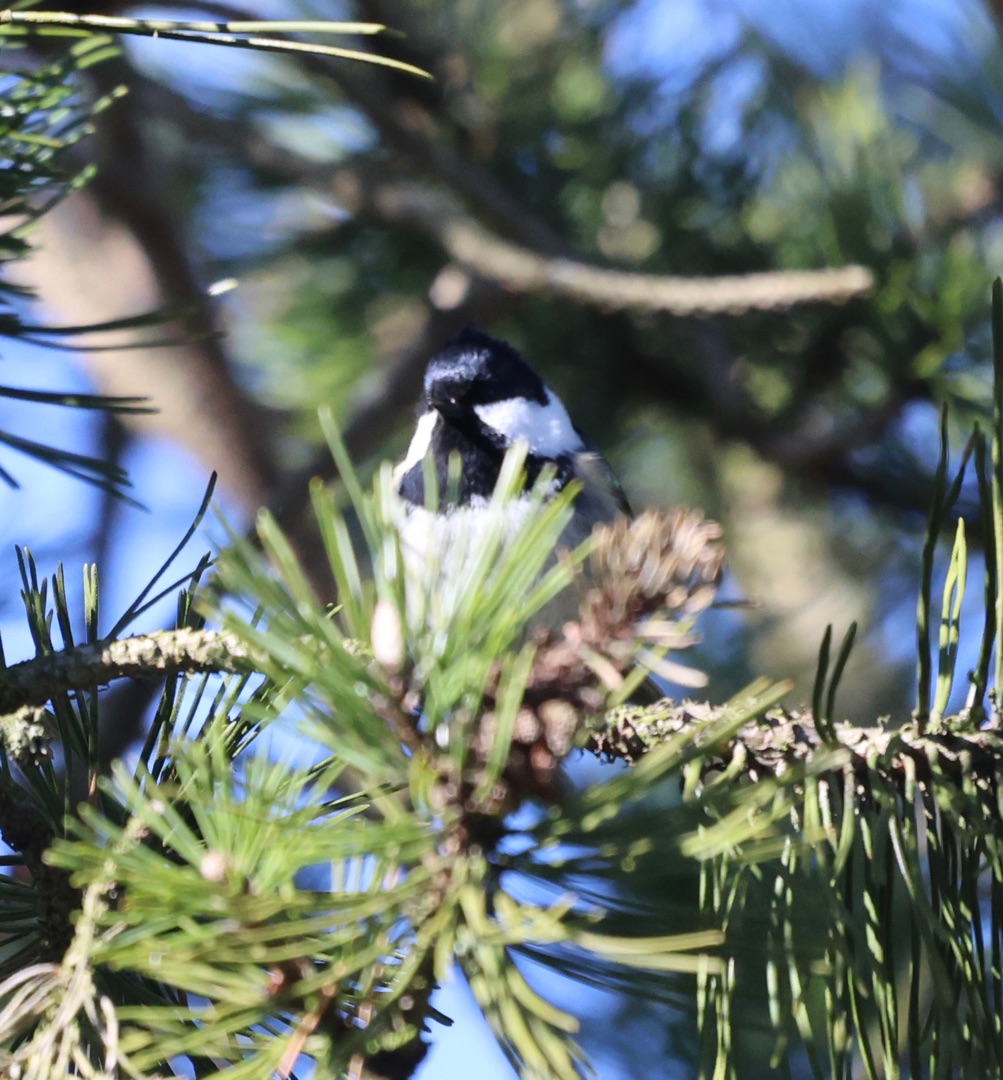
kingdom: Animalia
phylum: Chordata
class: Aves
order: Passeriformes
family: Paridae
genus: Periparus
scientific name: Periparus ater
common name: Sortmejse
